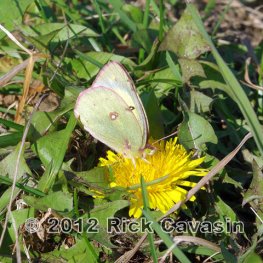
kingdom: Animalia
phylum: Arthropoda
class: Insecta
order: Lepidoptera
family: Pieridae
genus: Colias
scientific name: Colias philodice
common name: Clouded Sulphur
